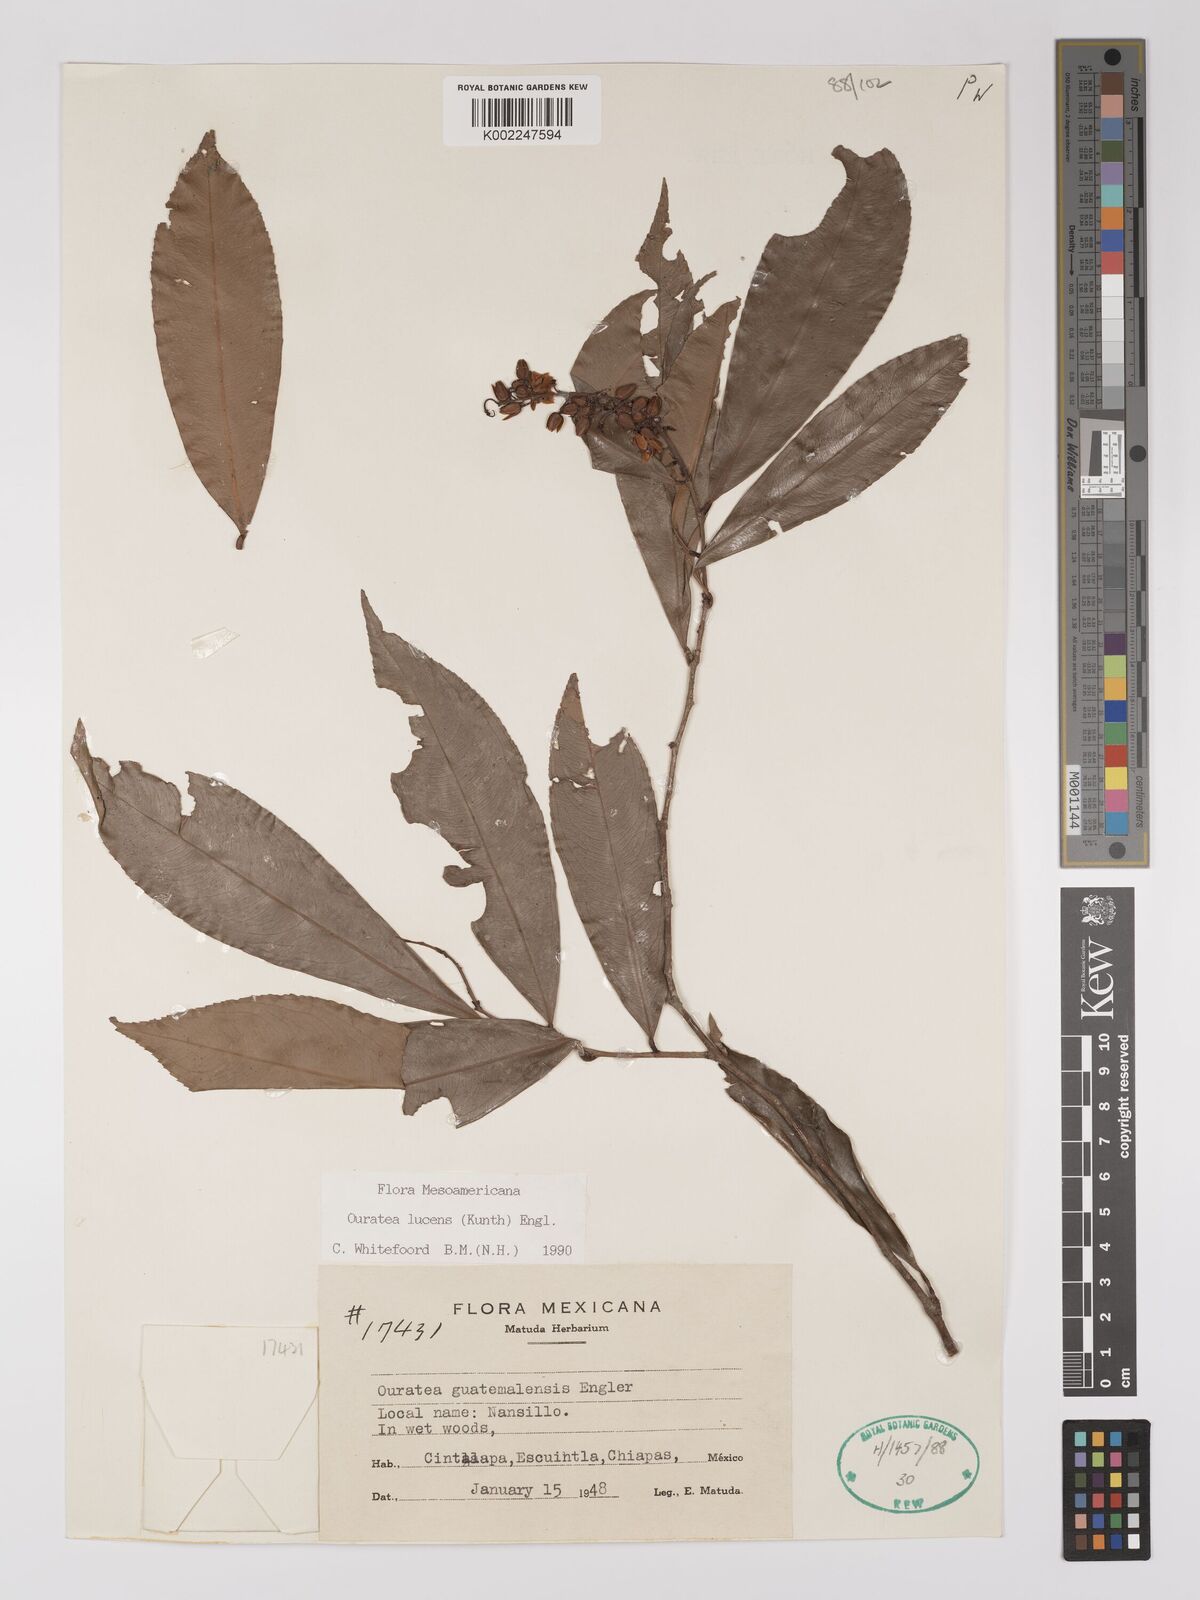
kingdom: Plantae
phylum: Tracheophyta
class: Magnoliopsida
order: Malpighiales
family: Ochnaceae
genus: Ouratea
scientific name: Ouratea lucens
